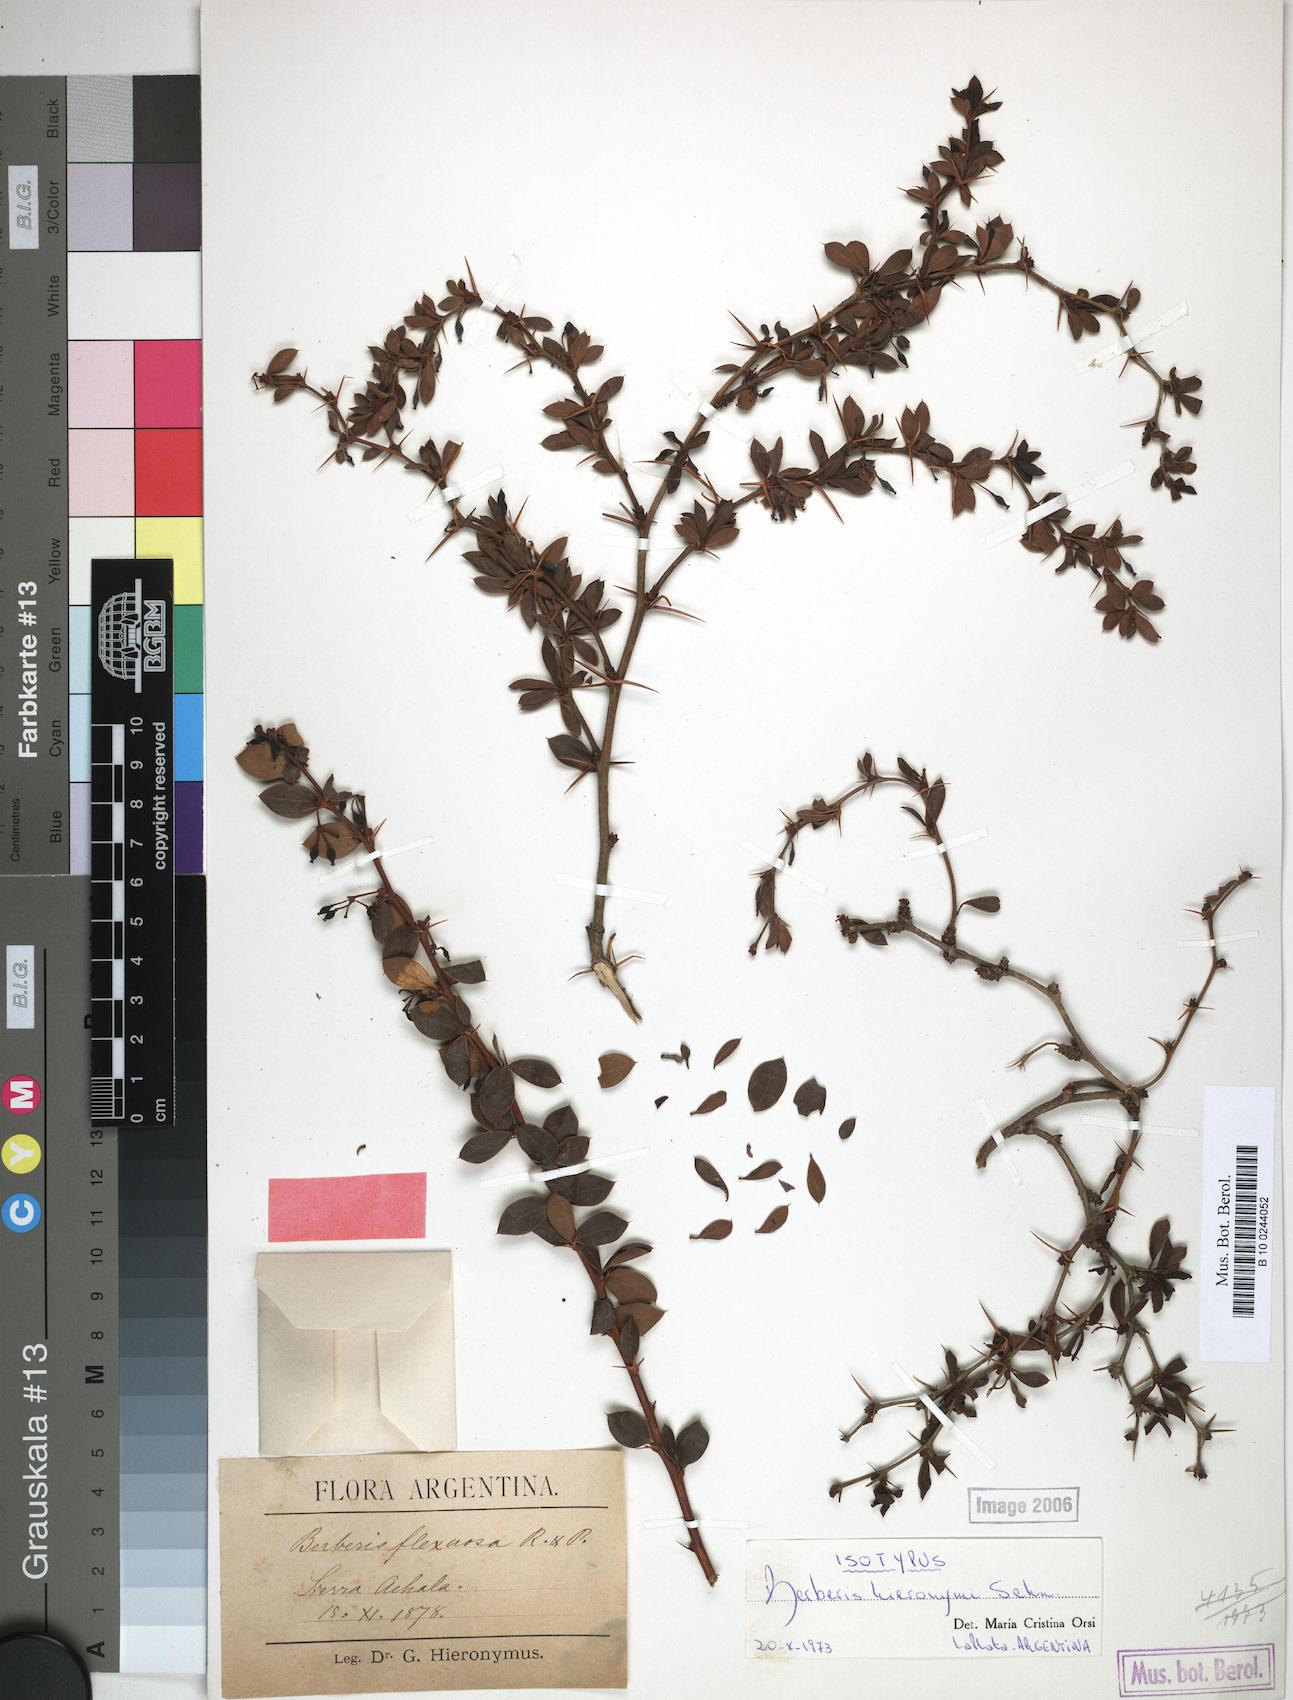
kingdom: Plantae
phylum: Tracheophyta
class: Magnoliopsida
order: Ranunculales
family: Berberidaceae
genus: Berberis
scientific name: Berberis hieronymi
